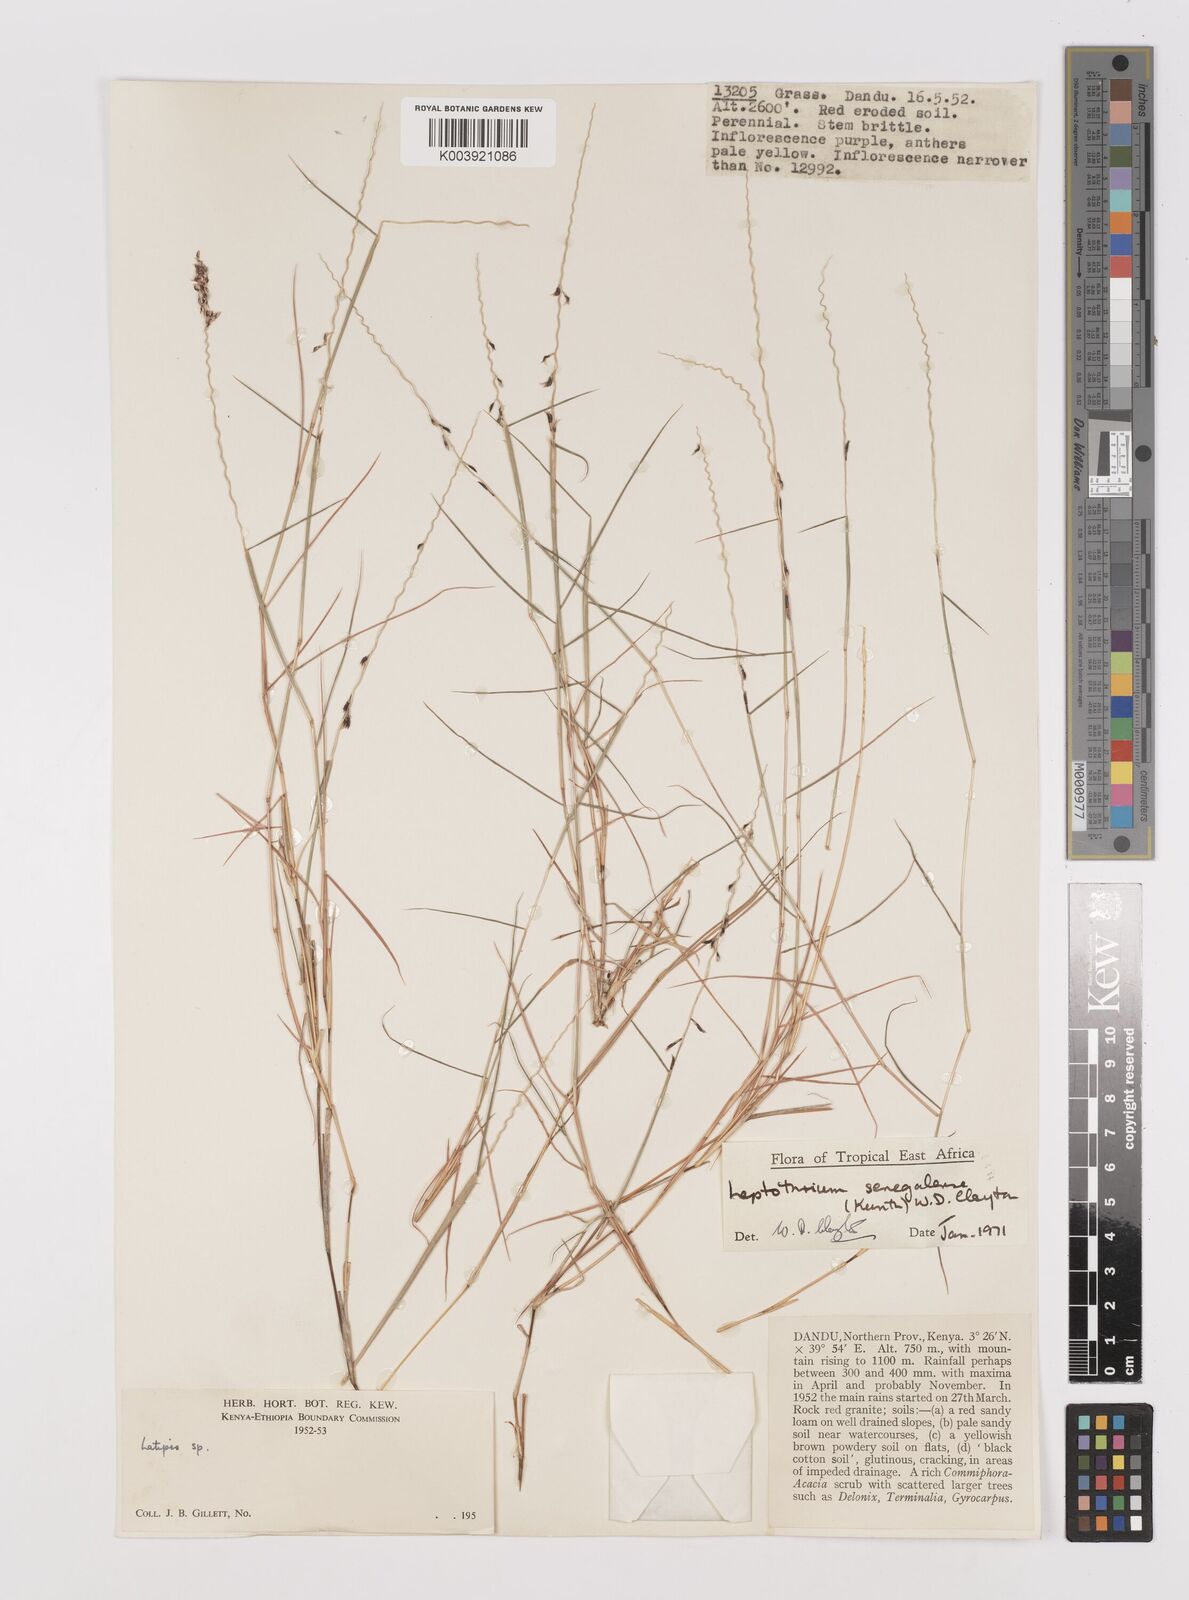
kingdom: Plantae
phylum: Tracheophyta
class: Liliopsida
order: Poales
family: Poaceae
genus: Leptothrium
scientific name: Leptothrium senegalense
